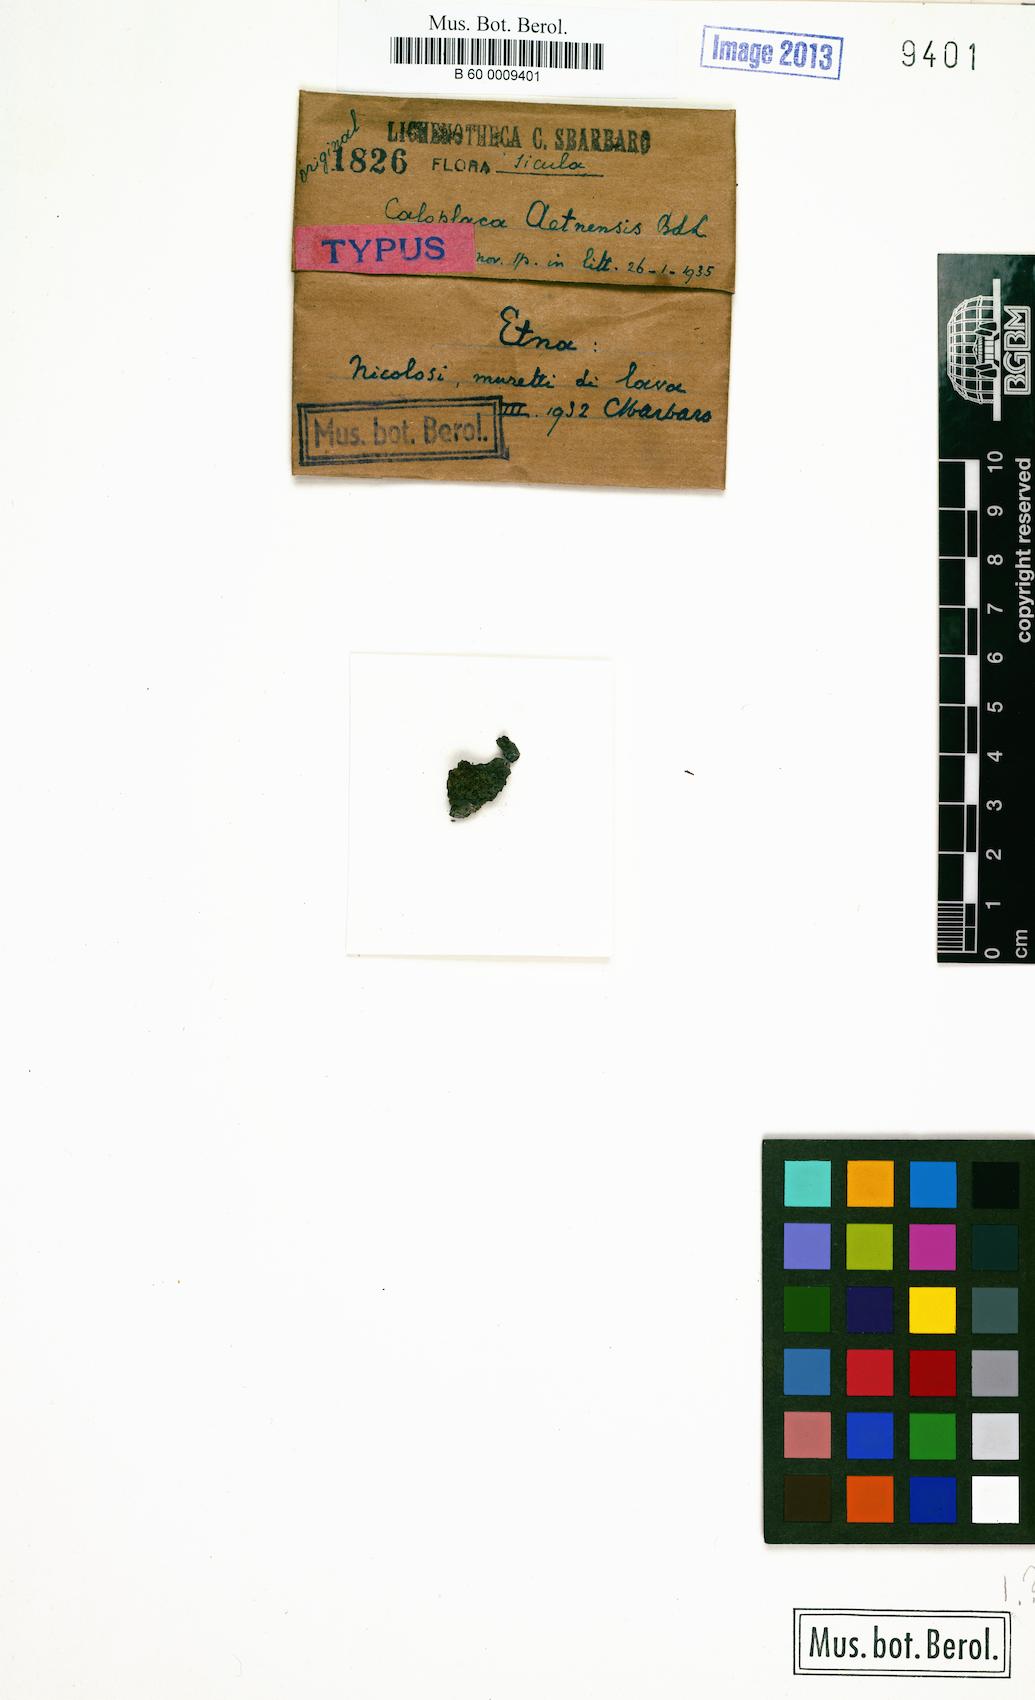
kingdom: Fungi
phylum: Ascomycota
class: Lecanoromycetes
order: Teloschistales
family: Teloschistaceae
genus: Pyrenodesmia
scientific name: Pyrenodesmia aetnensis
